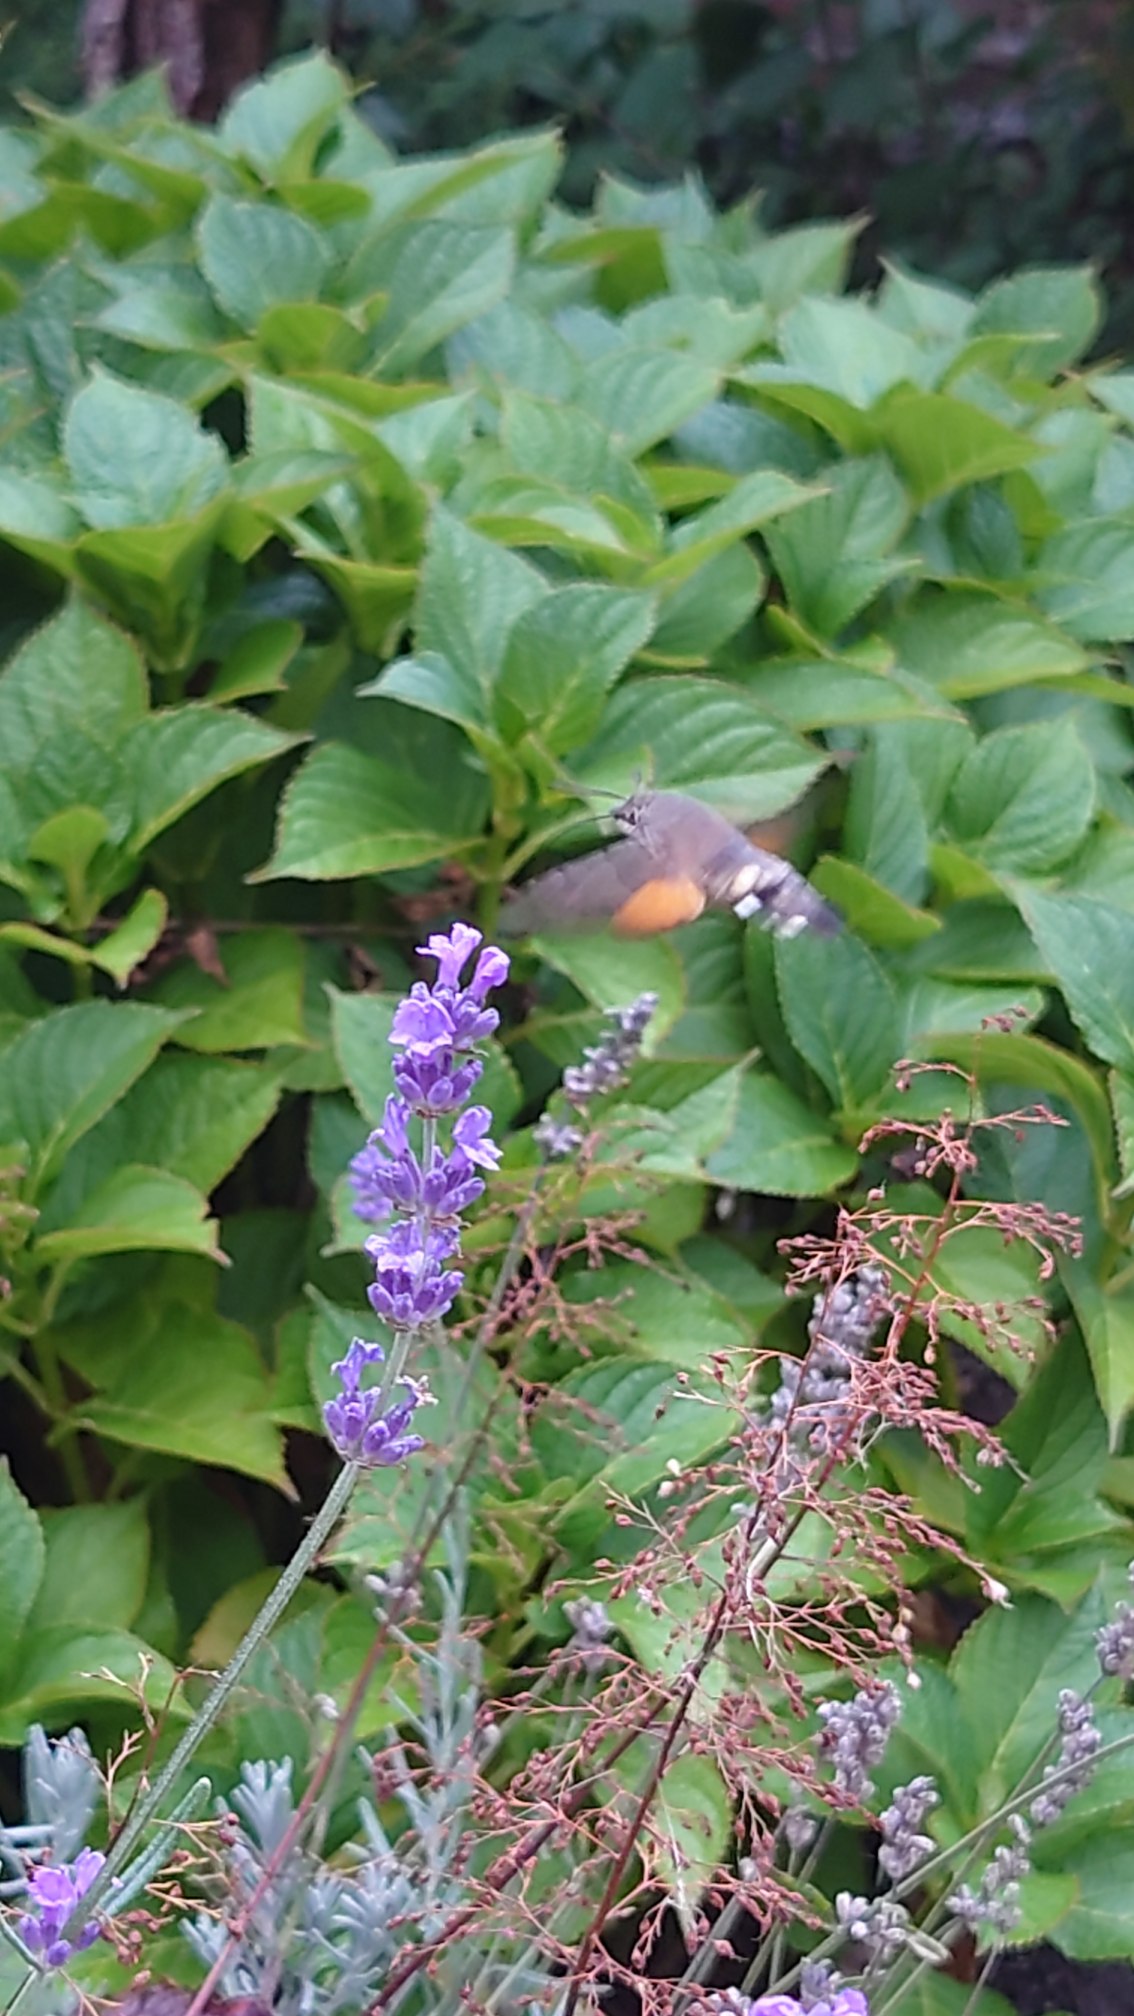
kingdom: Animalia
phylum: Arthropoda
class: Insecta
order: Lepidoptera
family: Sphingidae
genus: Macroglossum
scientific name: Macroglossum stellatarum
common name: Duehale
